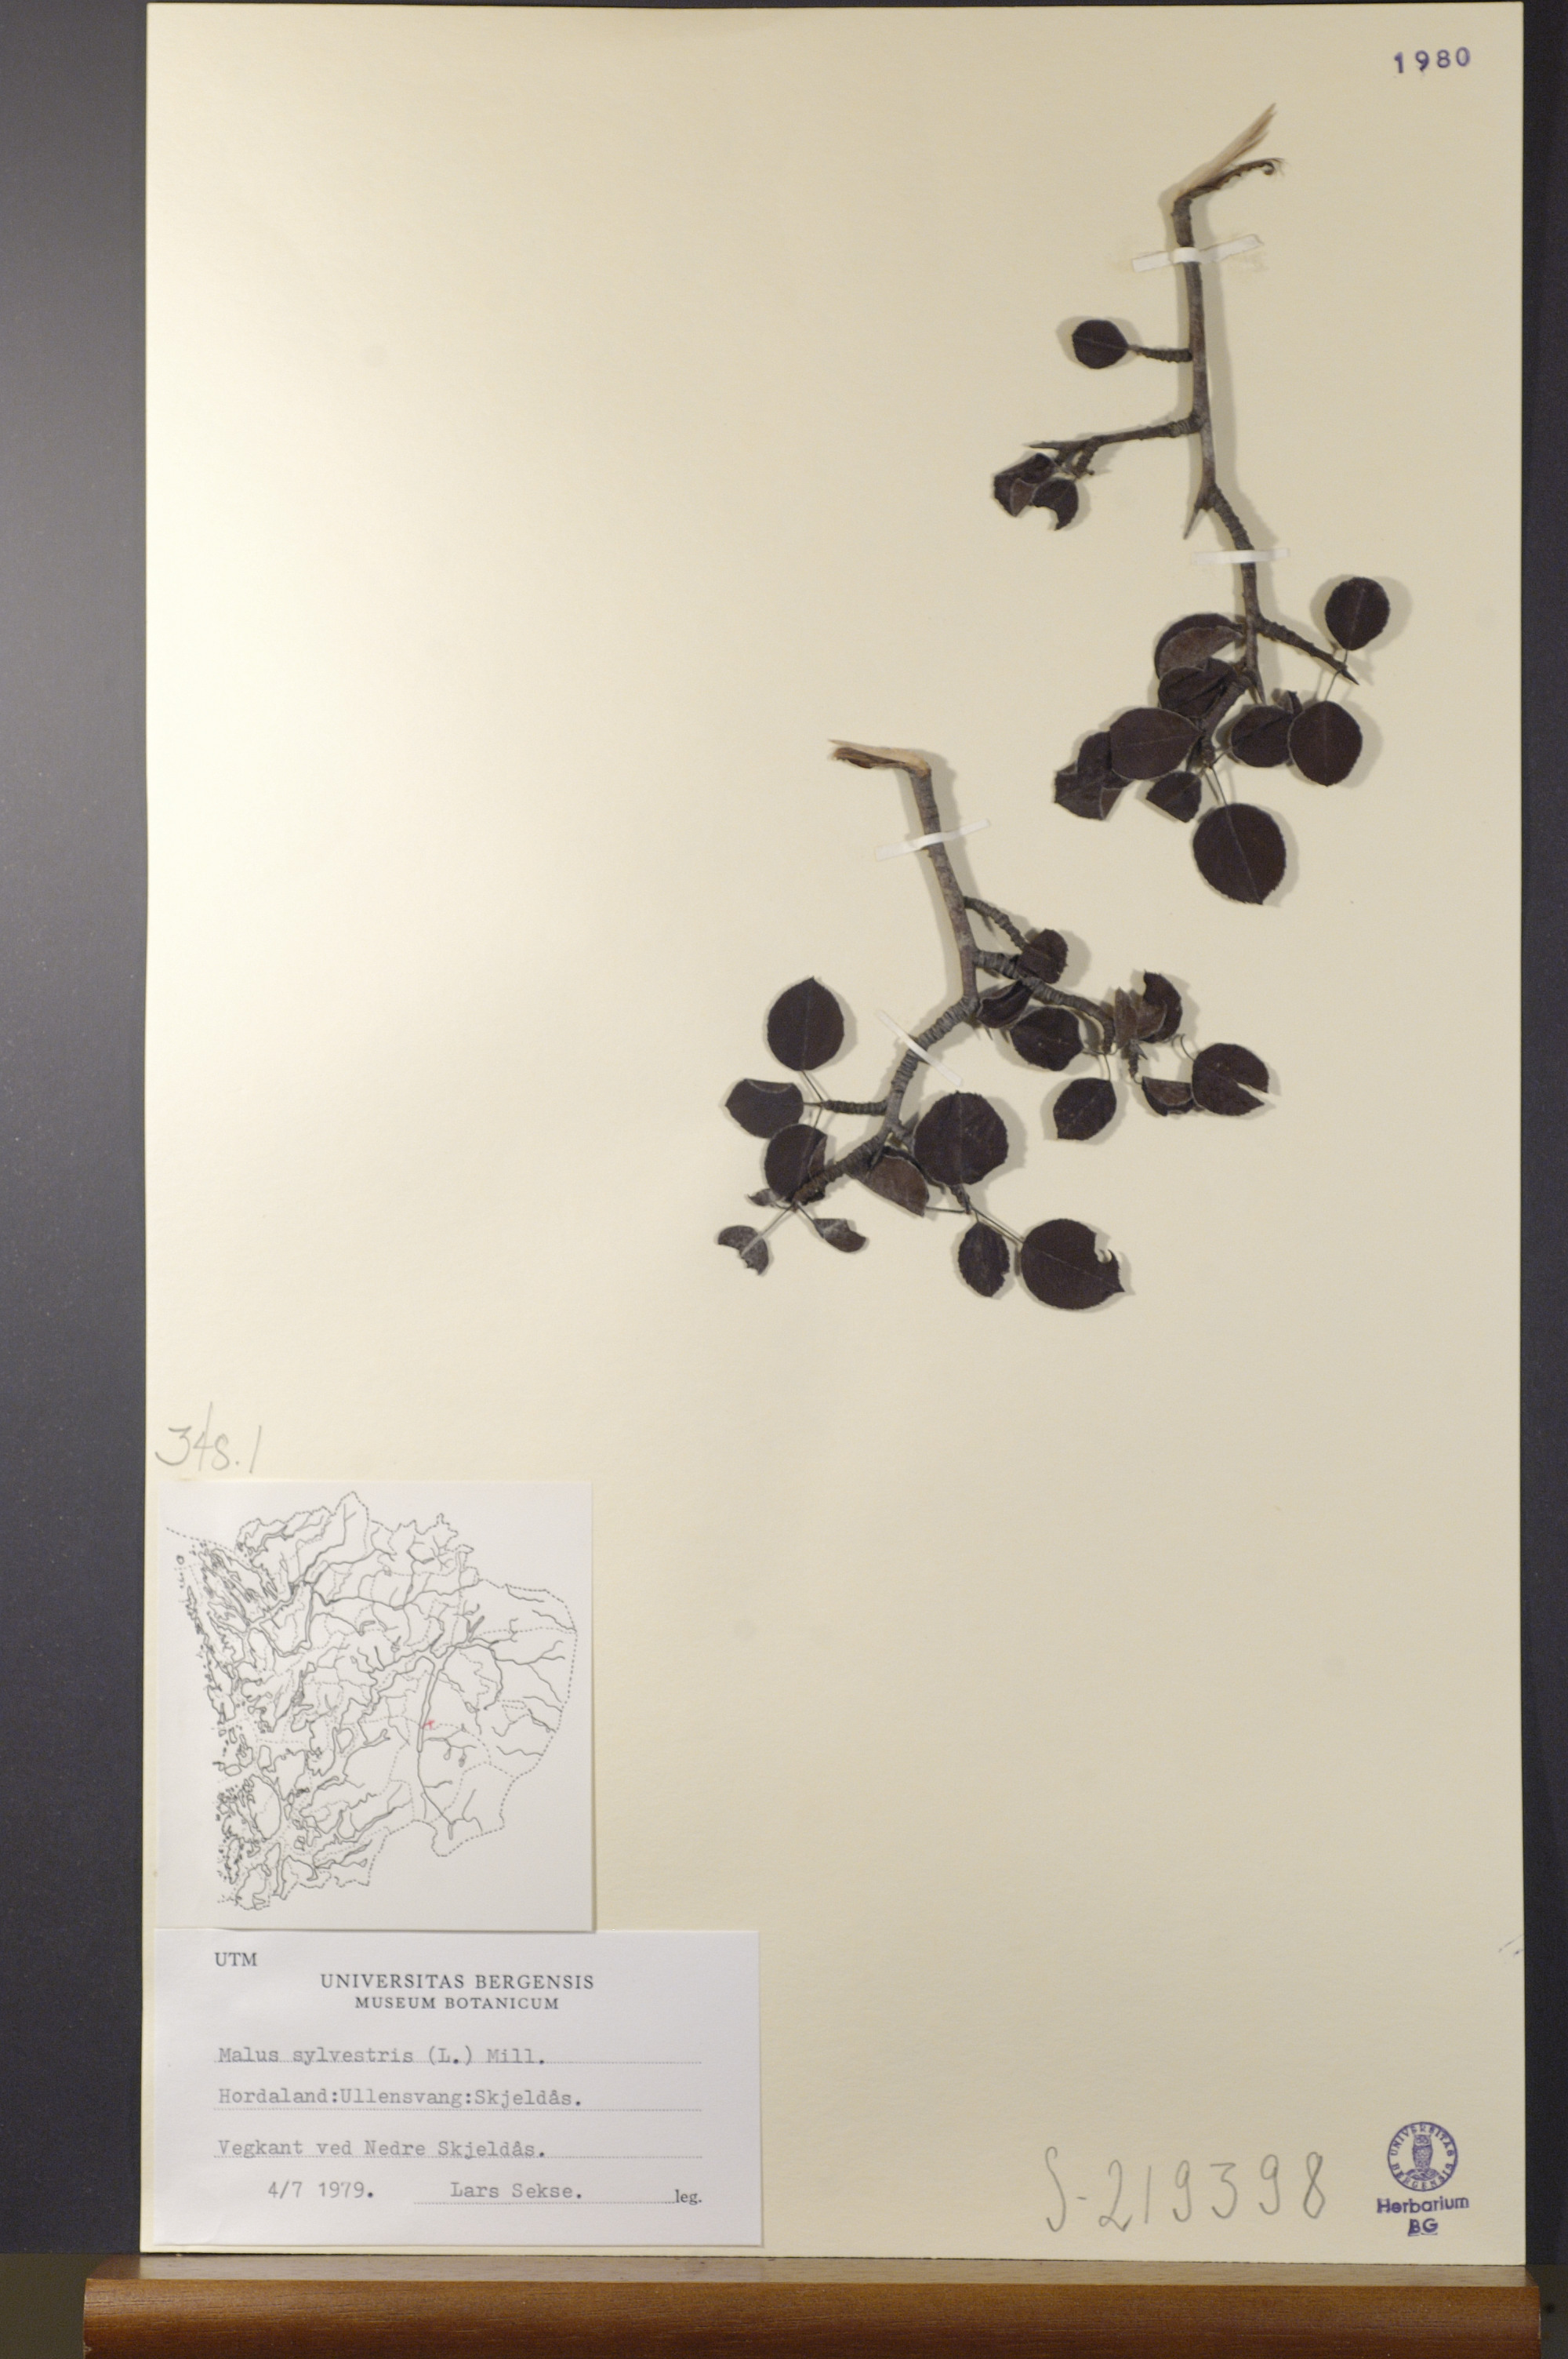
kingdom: Plantae
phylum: Tracheophyta
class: Magnoliopsida
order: Rosales
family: Rosaceae
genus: Malus
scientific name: Malus sylvestris
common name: Crab apple
